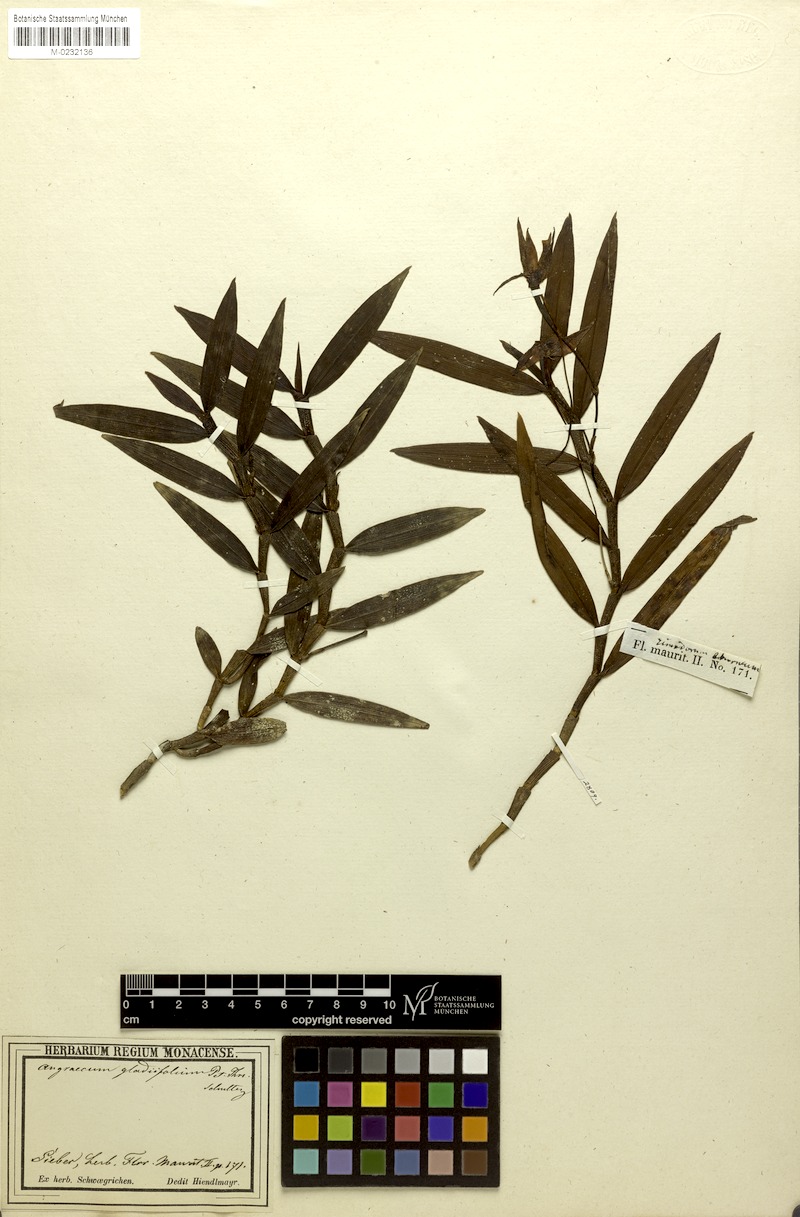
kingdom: Plantae
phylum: Tracheophyta
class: Liliopsida
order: Asparagales
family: Orchidaceae
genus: Angraecum
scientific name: Angraecum mauritianum
